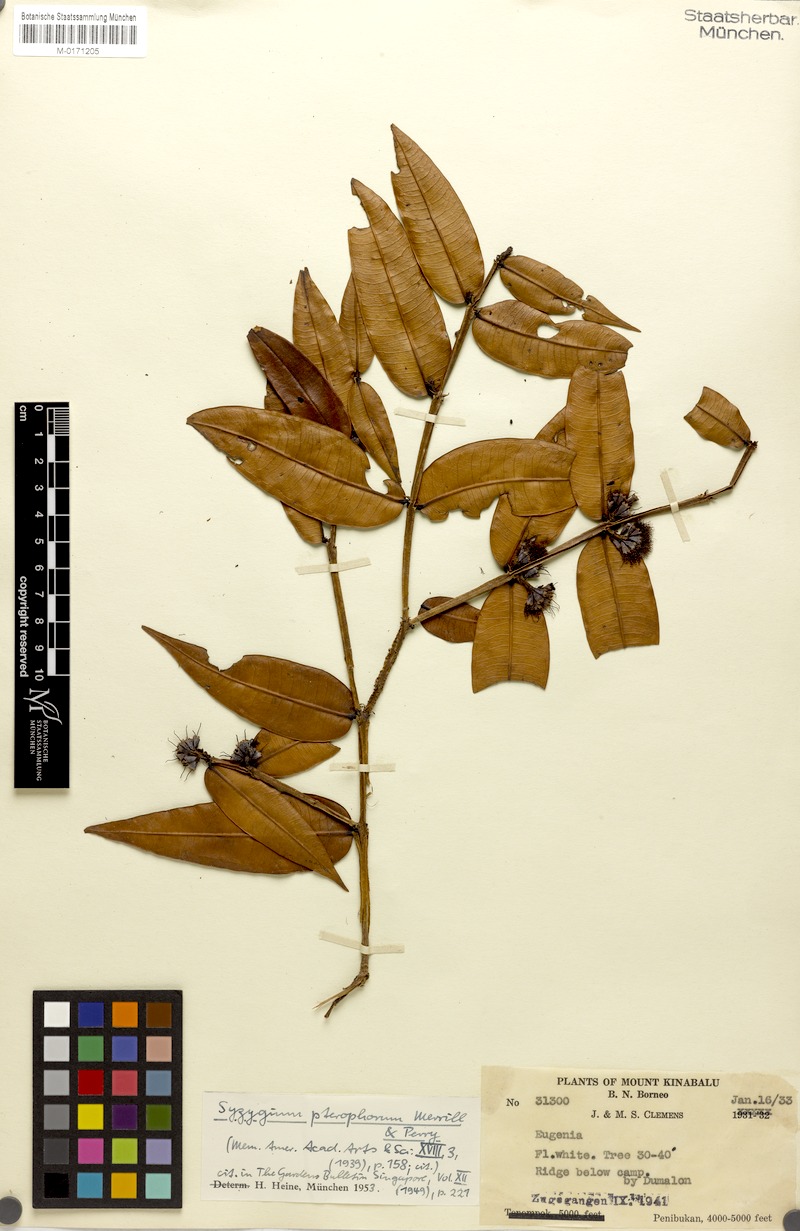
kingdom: Plantae
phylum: Tracheophyta
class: Magnoliopsida
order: Myrtales
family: Myrtaceae
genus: Syzygium
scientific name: Syzygium pterophorum
